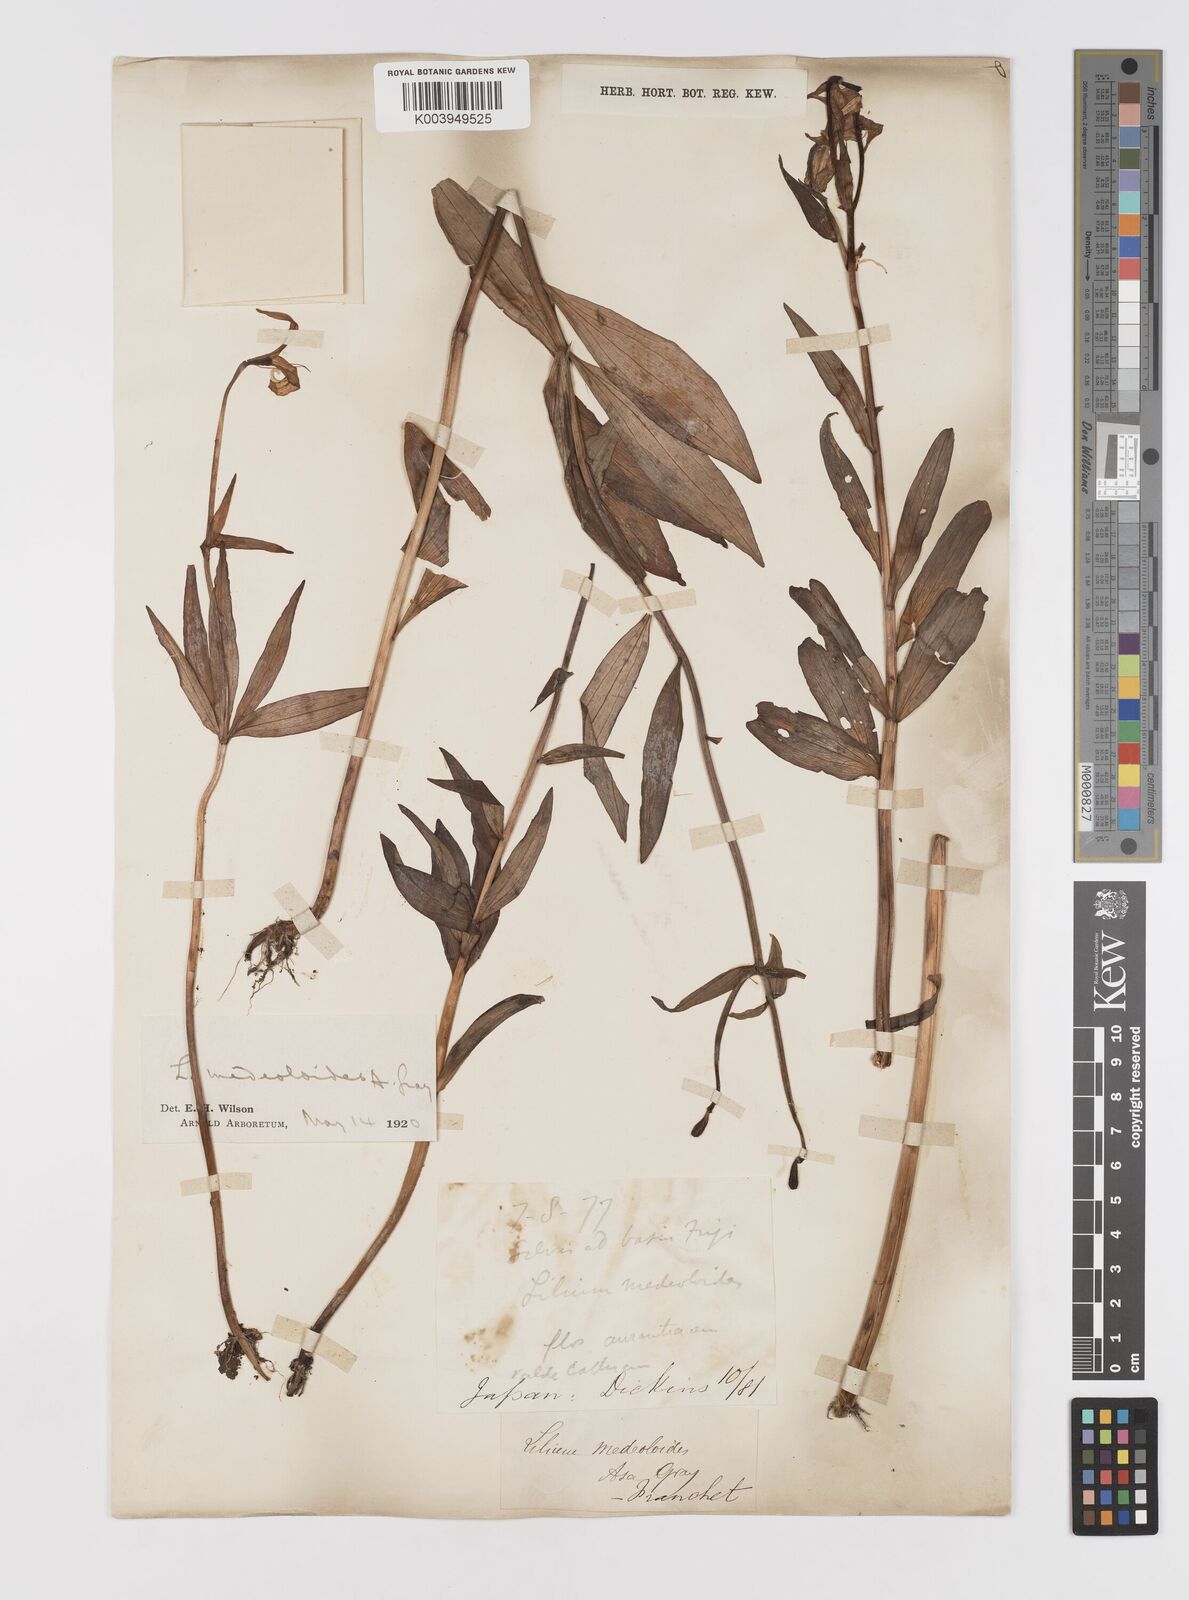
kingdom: Plantae
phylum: Tracheophyta
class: Liliopsida
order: Liliales
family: Liliaceae
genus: Lilium
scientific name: Lilium medeoloides
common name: Wheel lily
